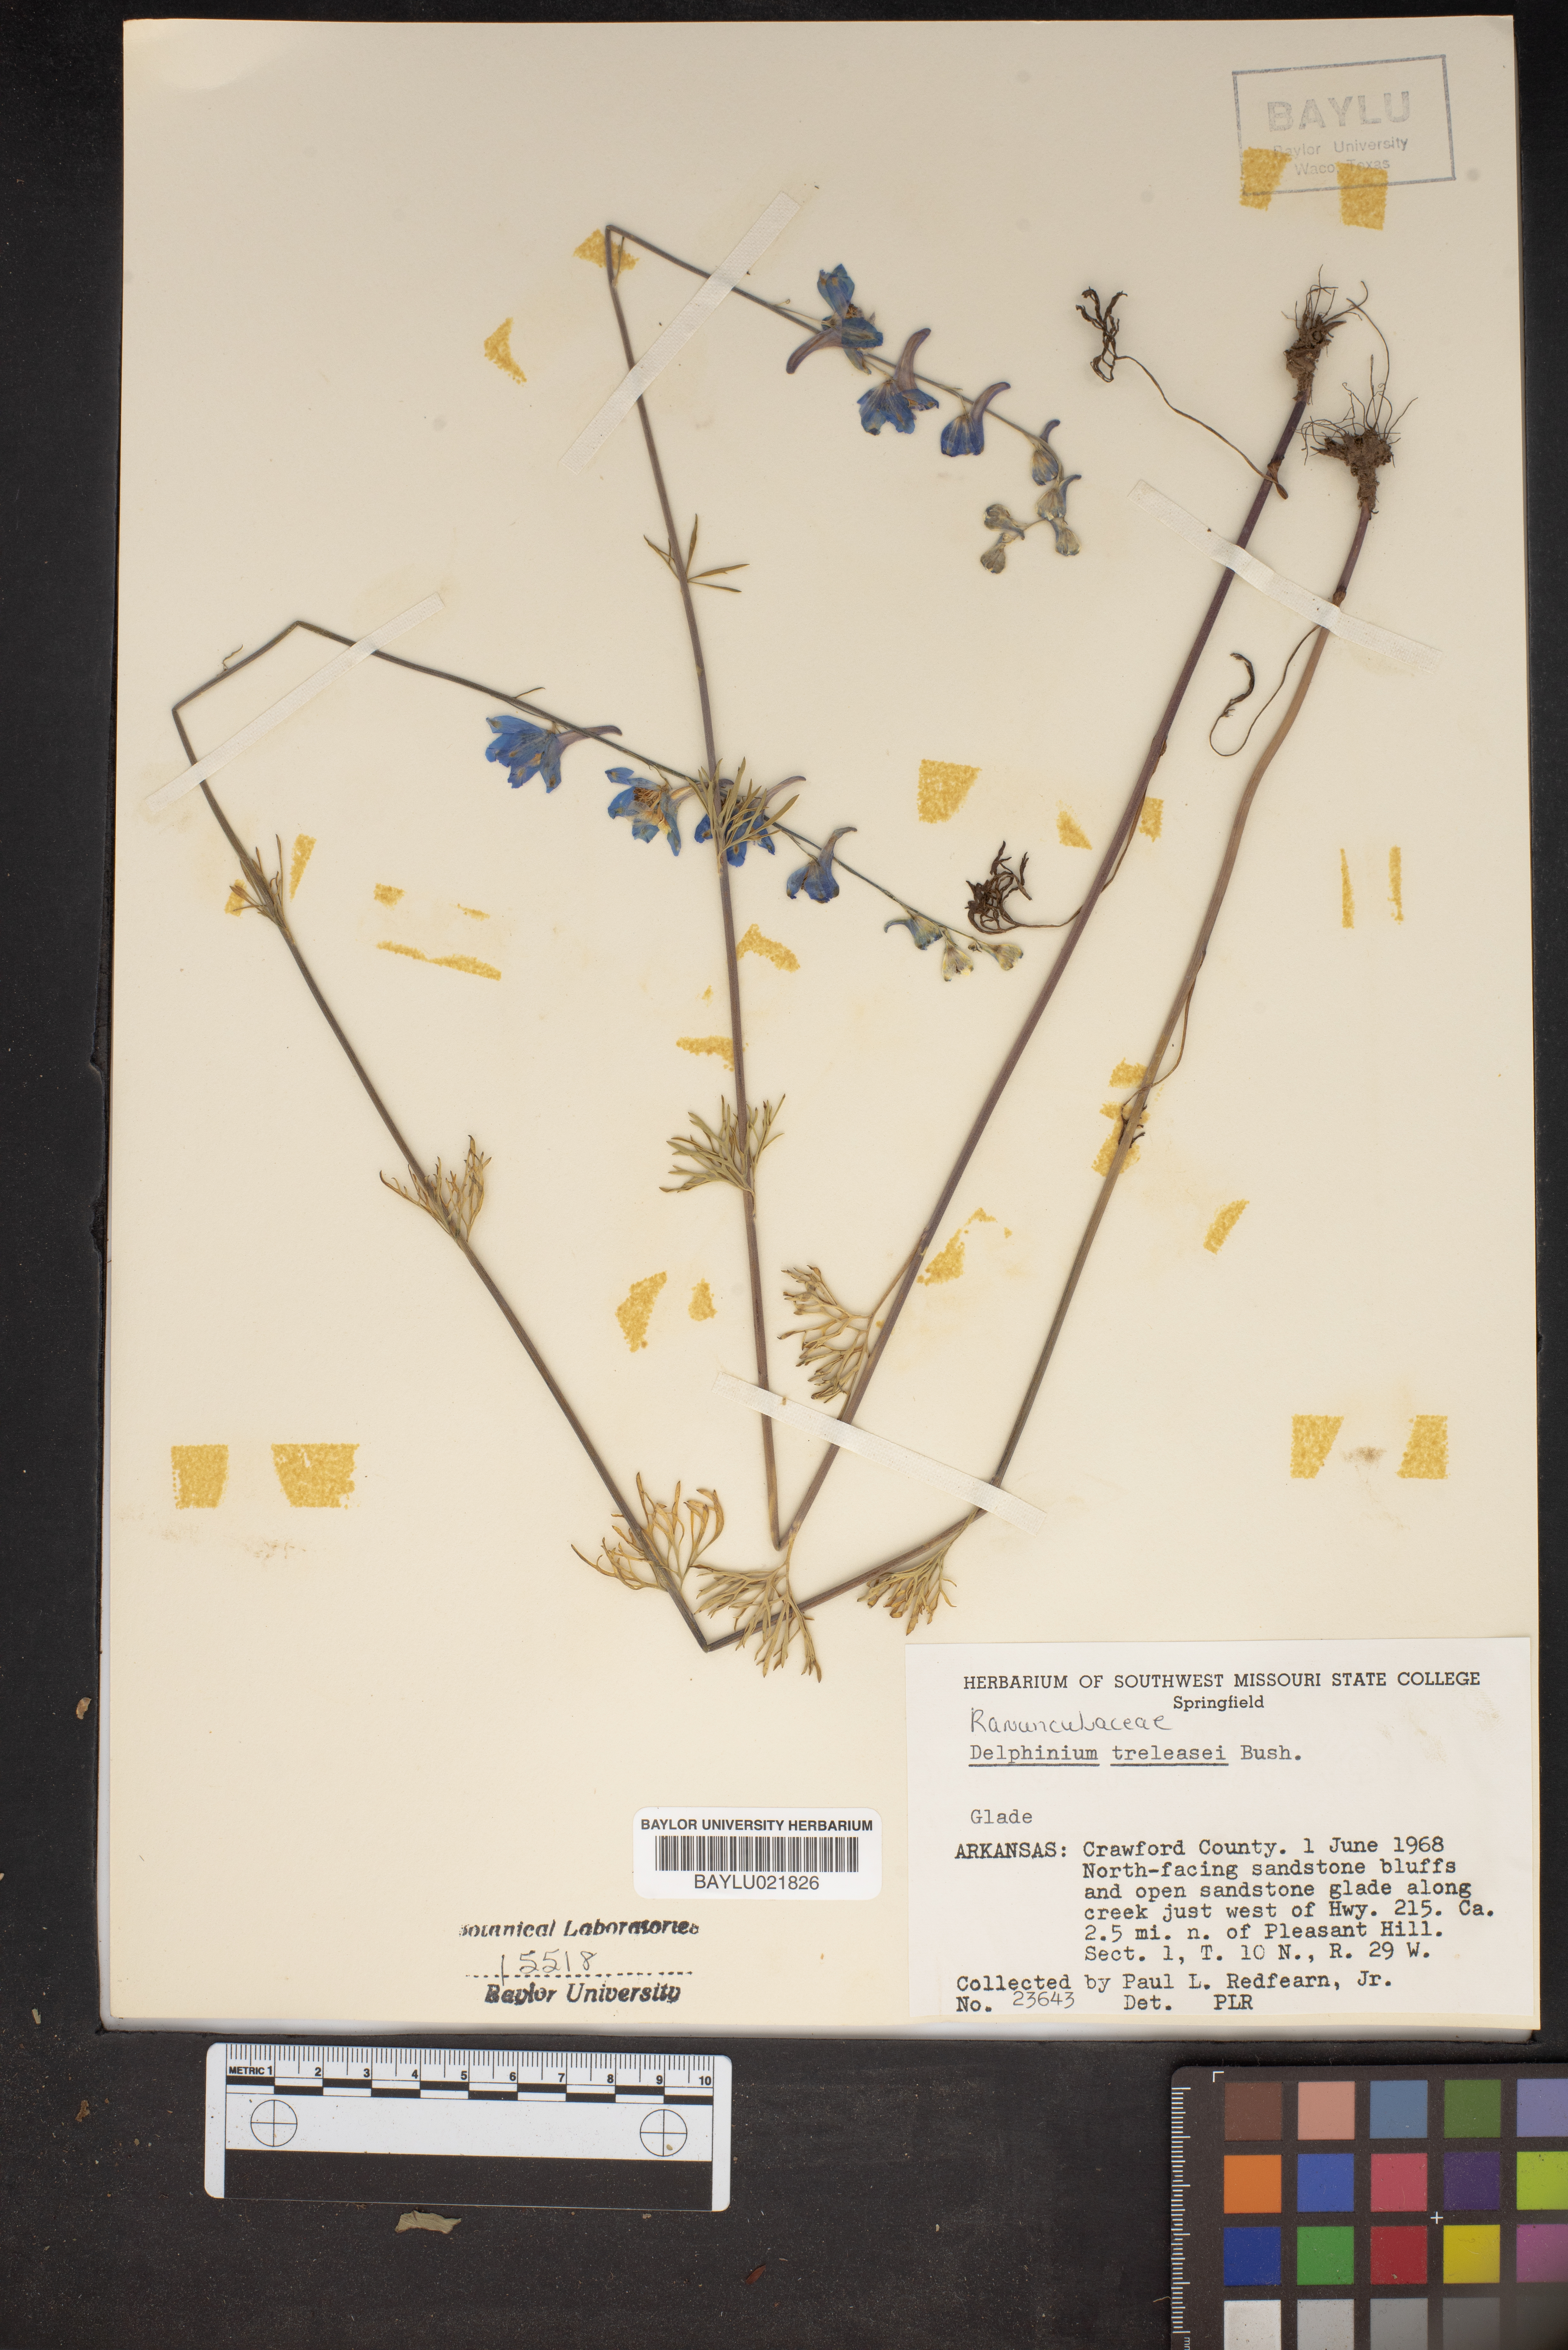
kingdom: Plantae
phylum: Tracheophyta
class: Magnoliopsida
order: Ranunculales
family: Ranunculaceae
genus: Delphinium
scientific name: Delphinium treleasei
